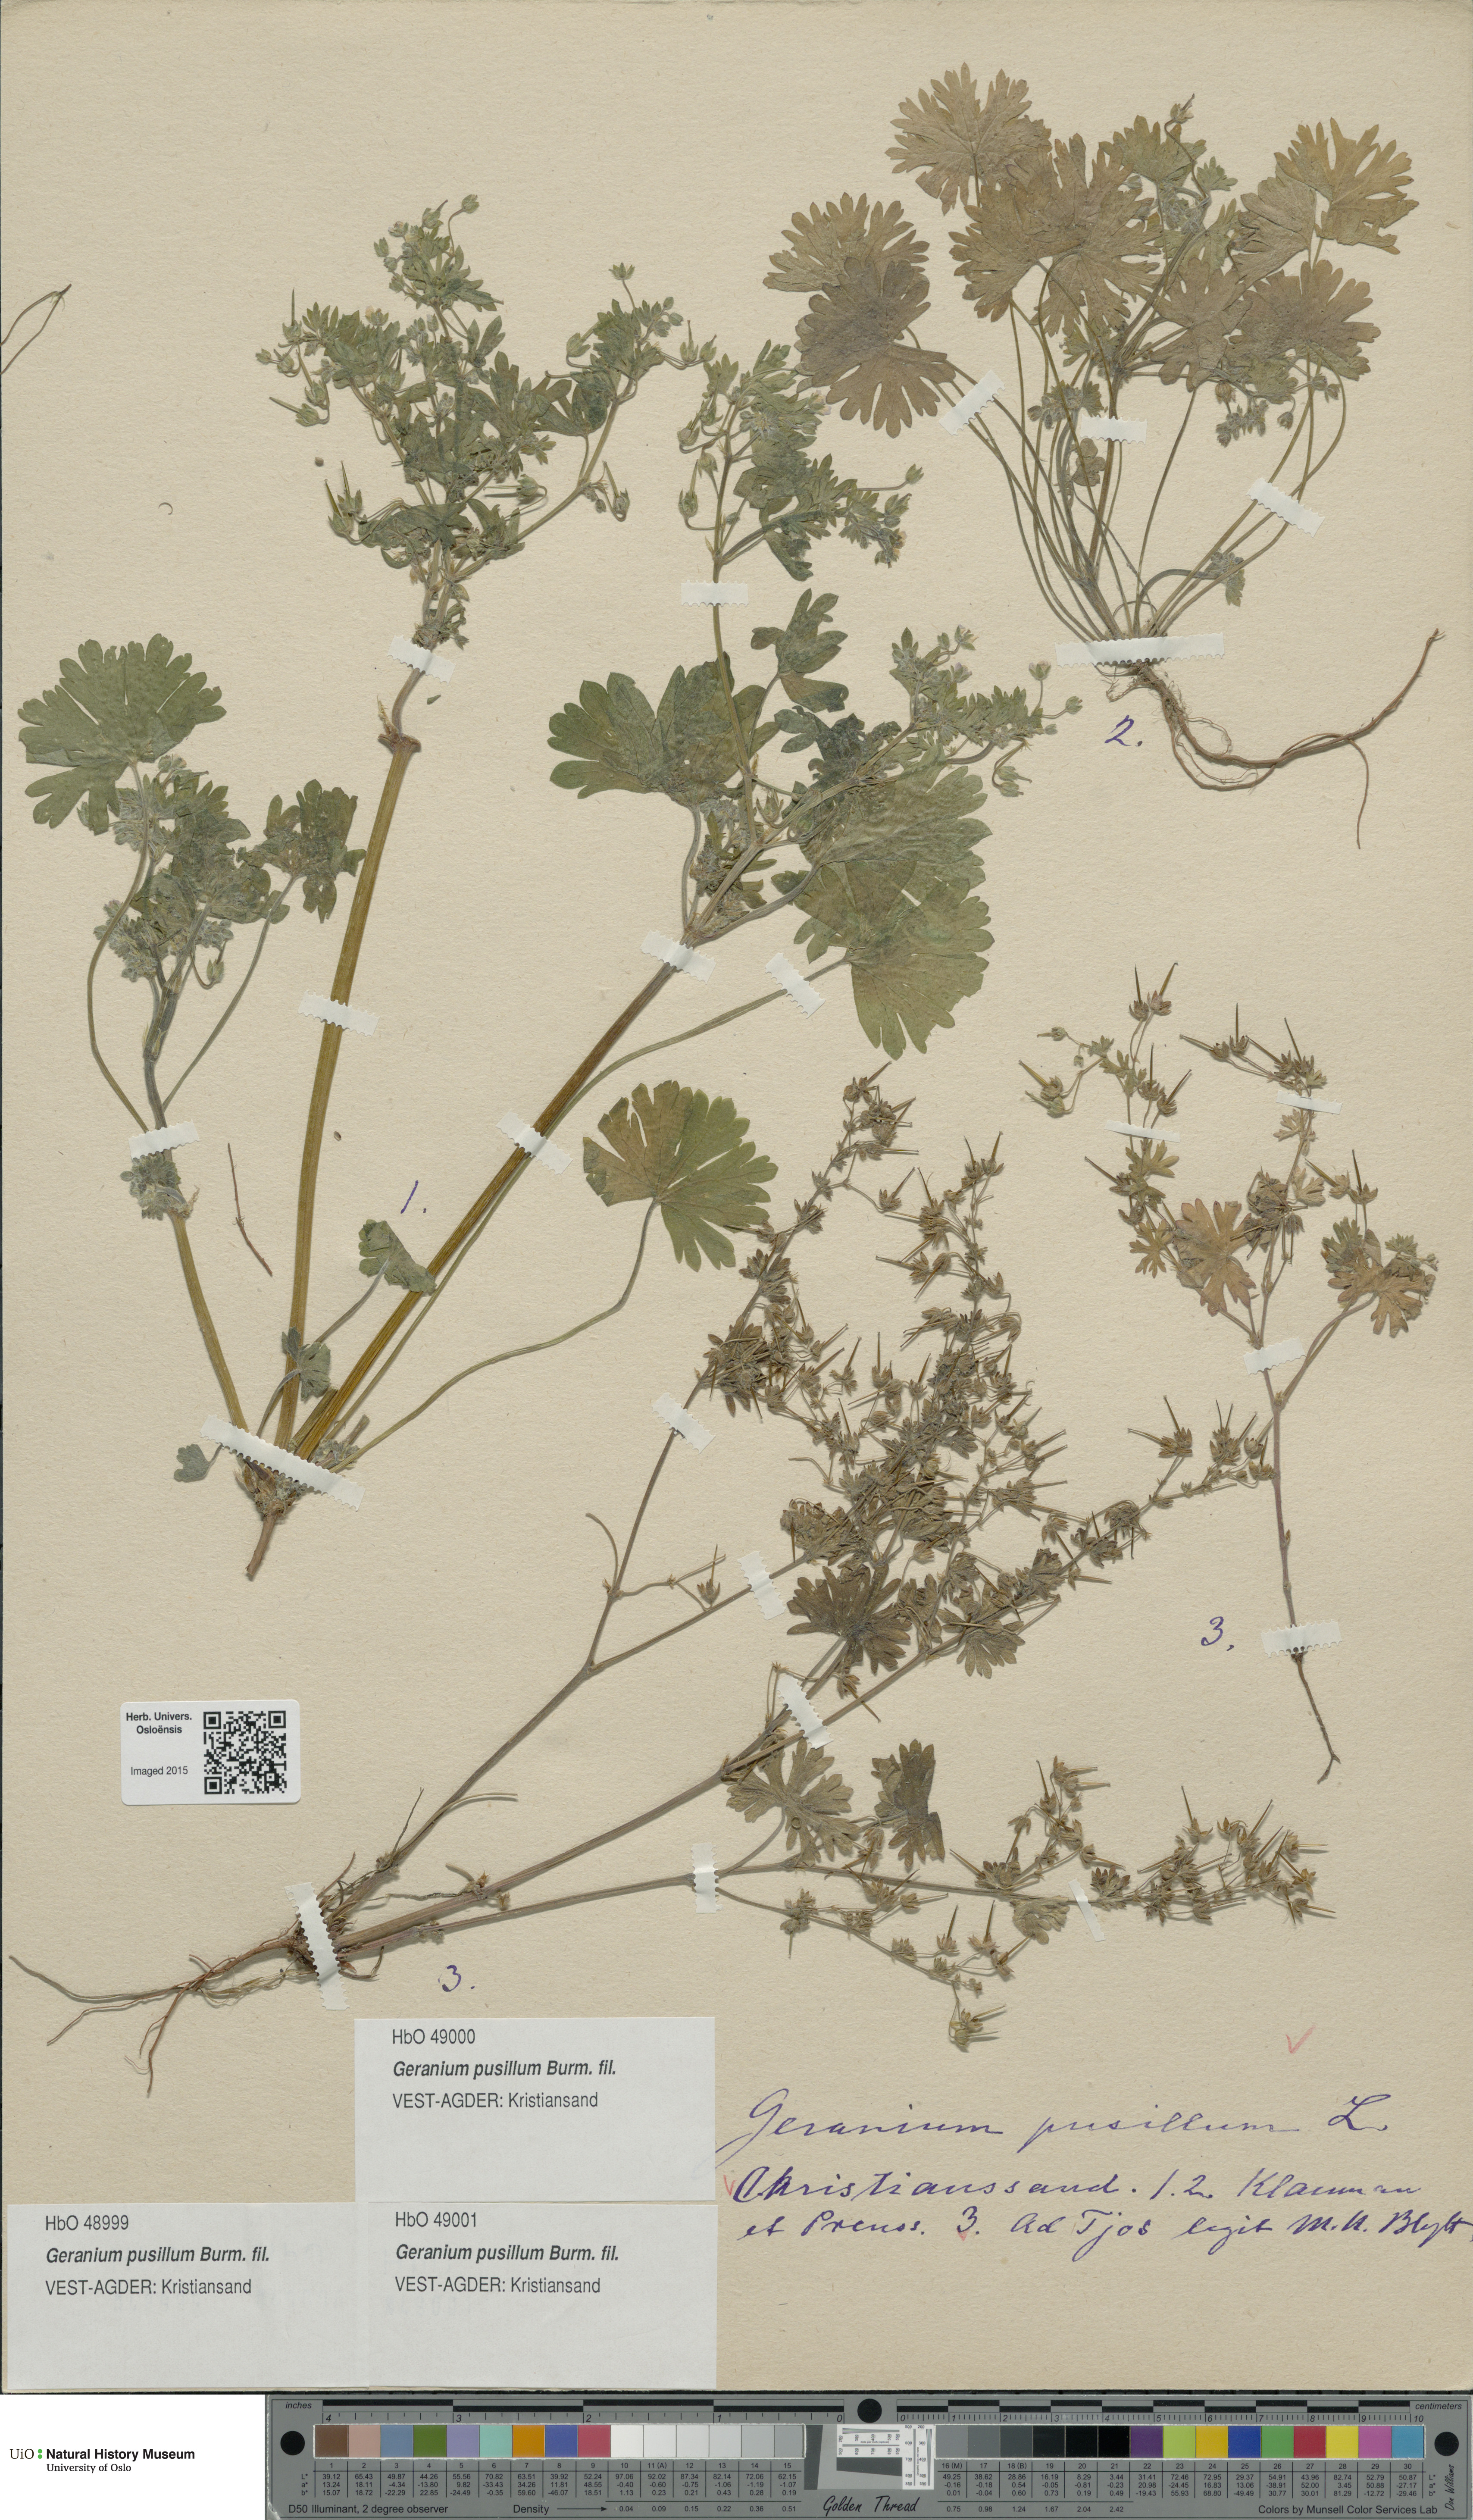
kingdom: Plantae
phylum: Tracheophyta
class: Magnoliopsida
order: Geraniales
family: Geraniaceae
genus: Geranium
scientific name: Geranium pusillum
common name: Small geranium
